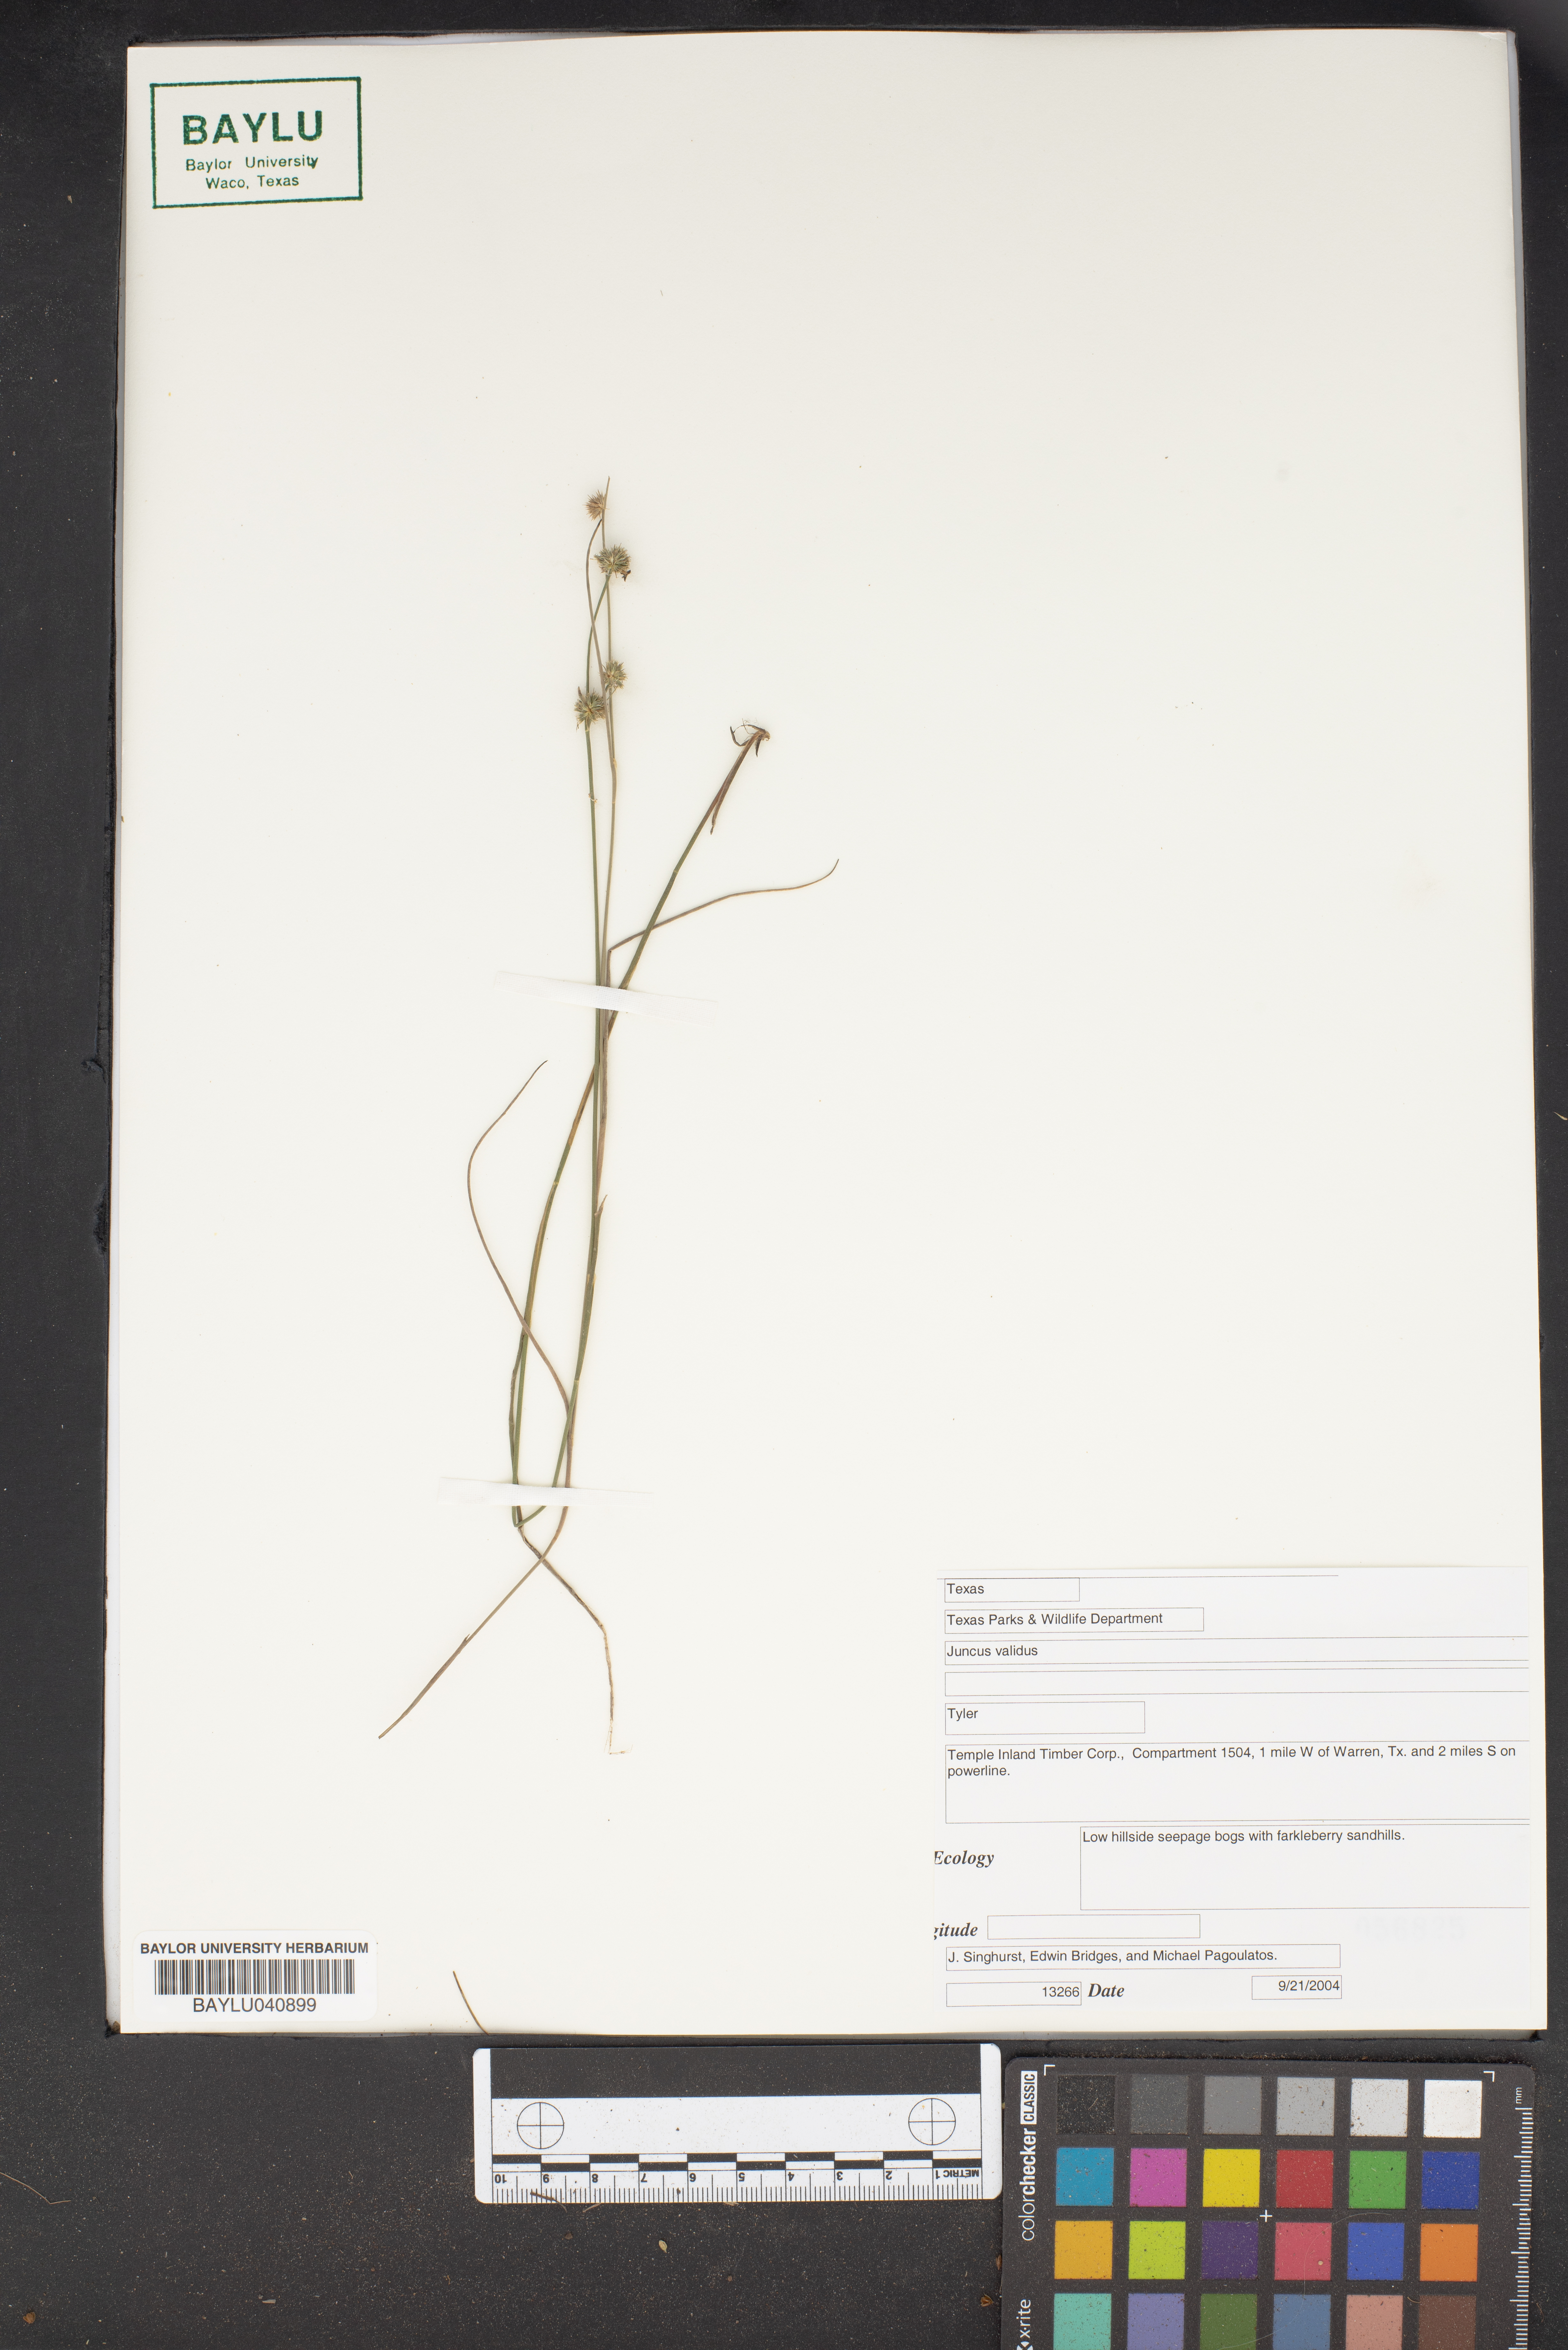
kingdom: Plantae
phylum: Tracheophyta
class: Liliopsida
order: Poales
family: Juncaceae
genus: Juncus
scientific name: Juncus validus
